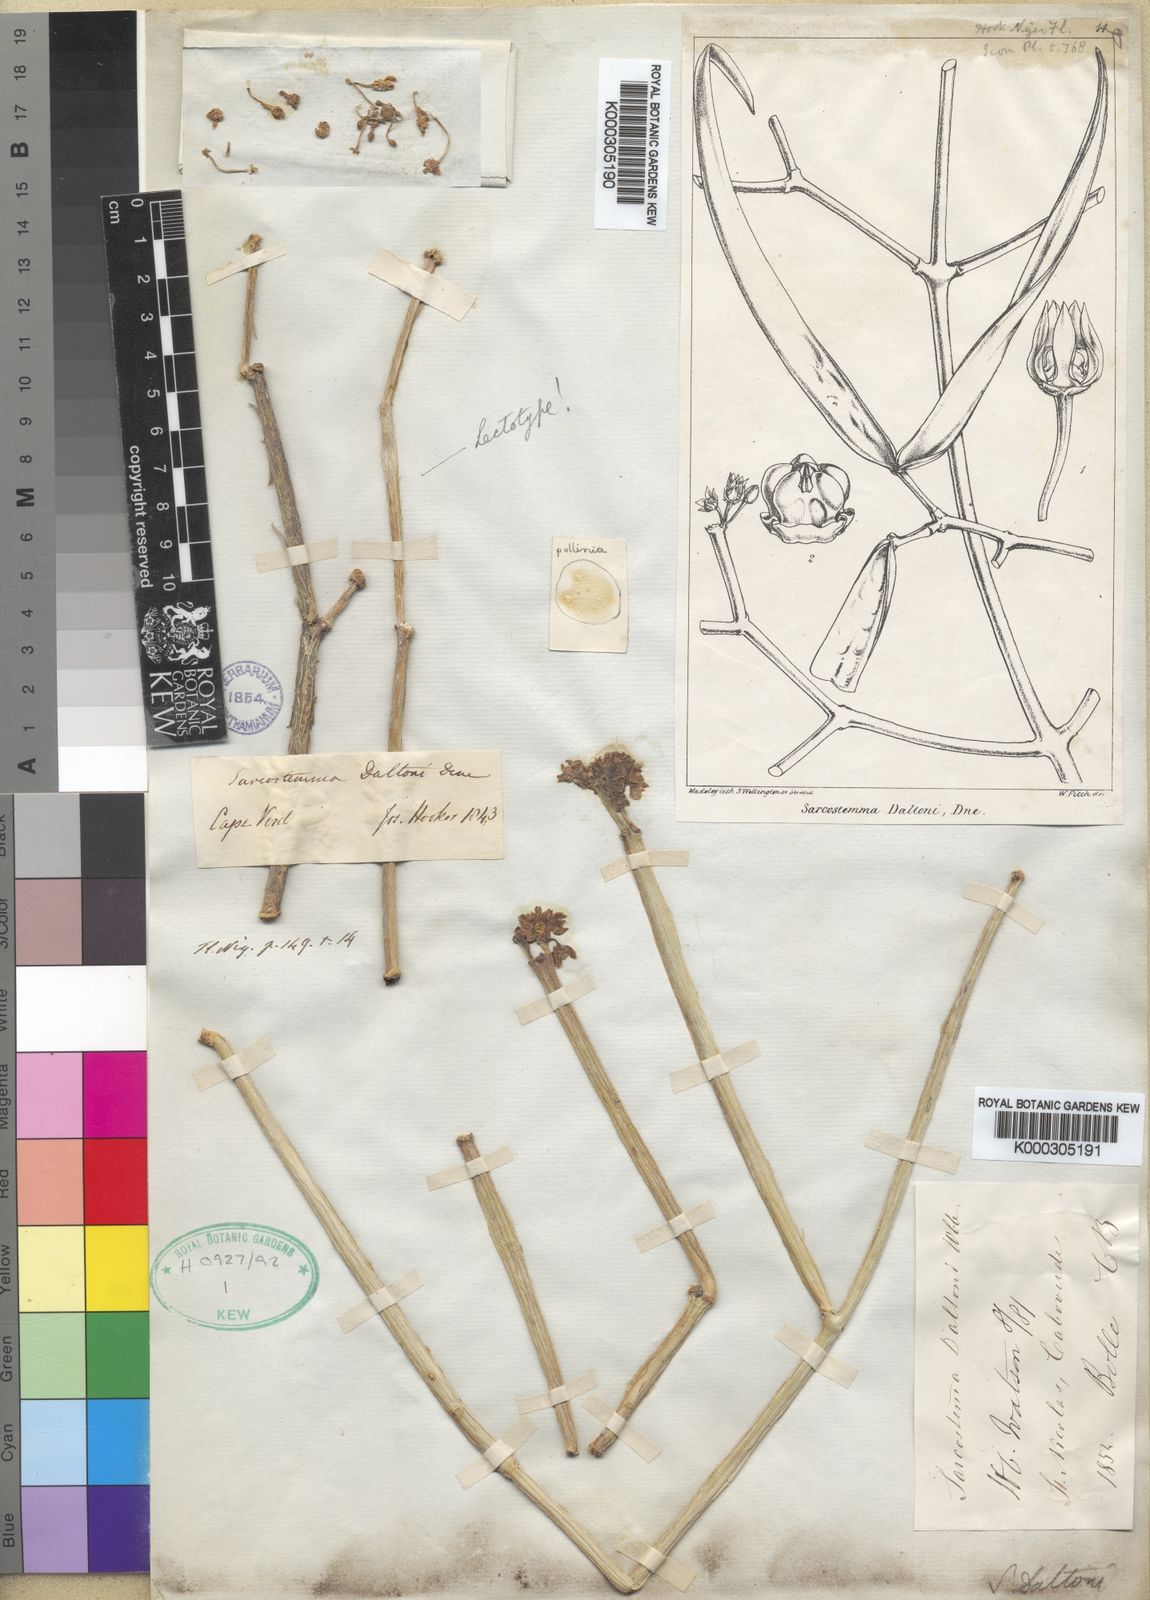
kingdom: Plantae
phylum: Tracheophyta
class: Magnoliopsida
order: Gentianales
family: Apocynaceae
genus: Cynanchum
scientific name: Cynanchum daltonii
